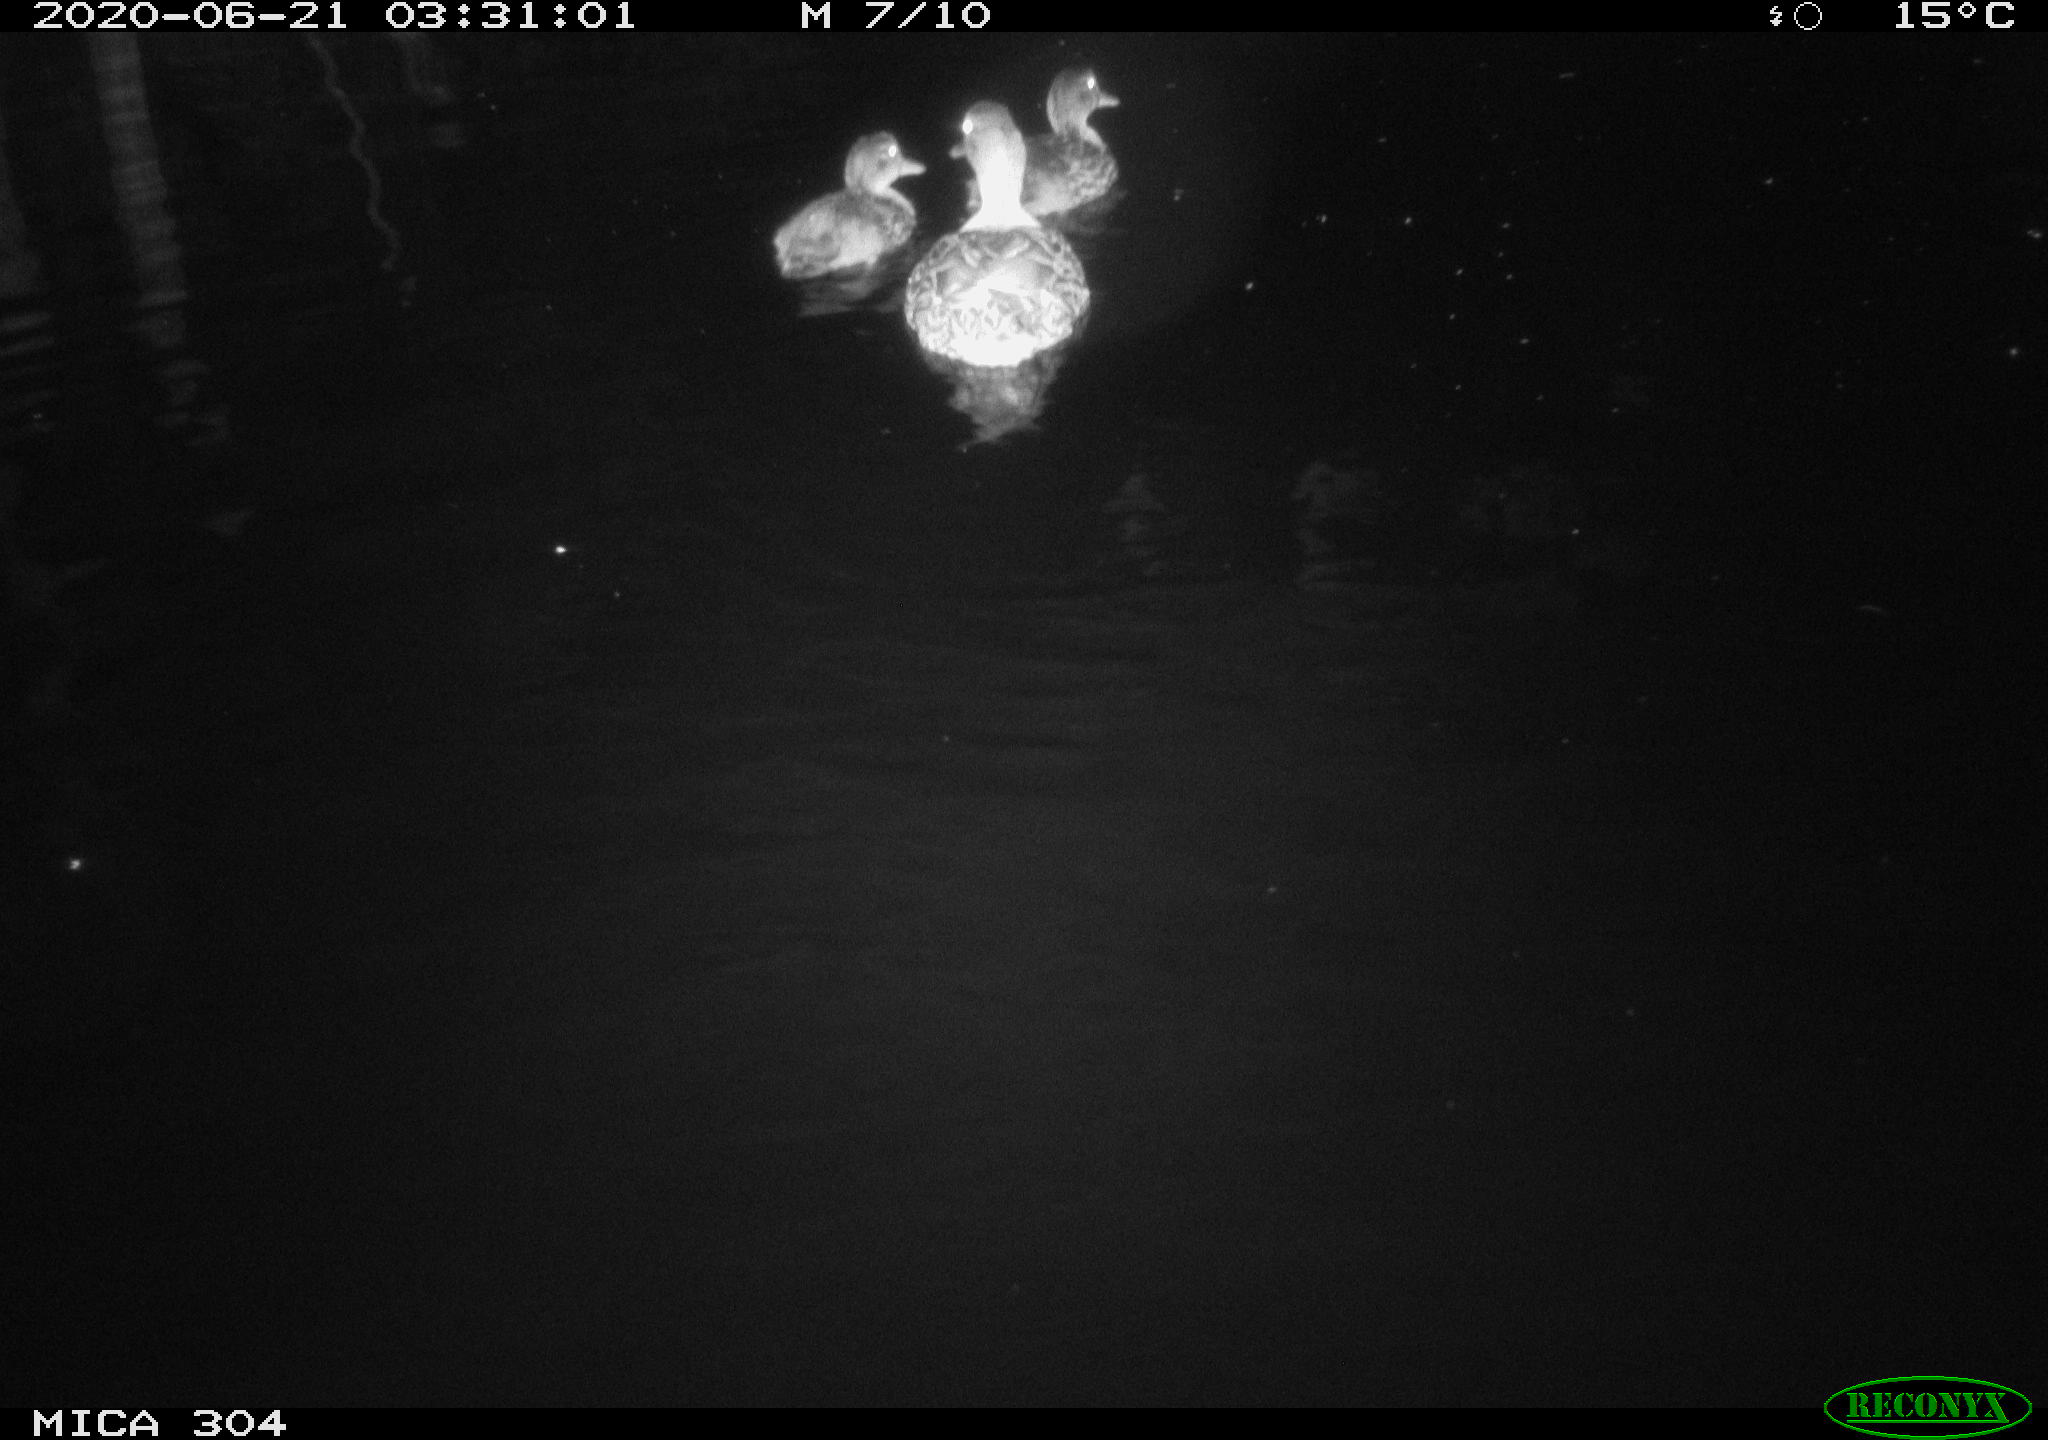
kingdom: Animalia
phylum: Chordata
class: Aves
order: Anseriformes
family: Anatidae
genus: Anas
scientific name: Anas platyrhynchos
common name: Mallard
